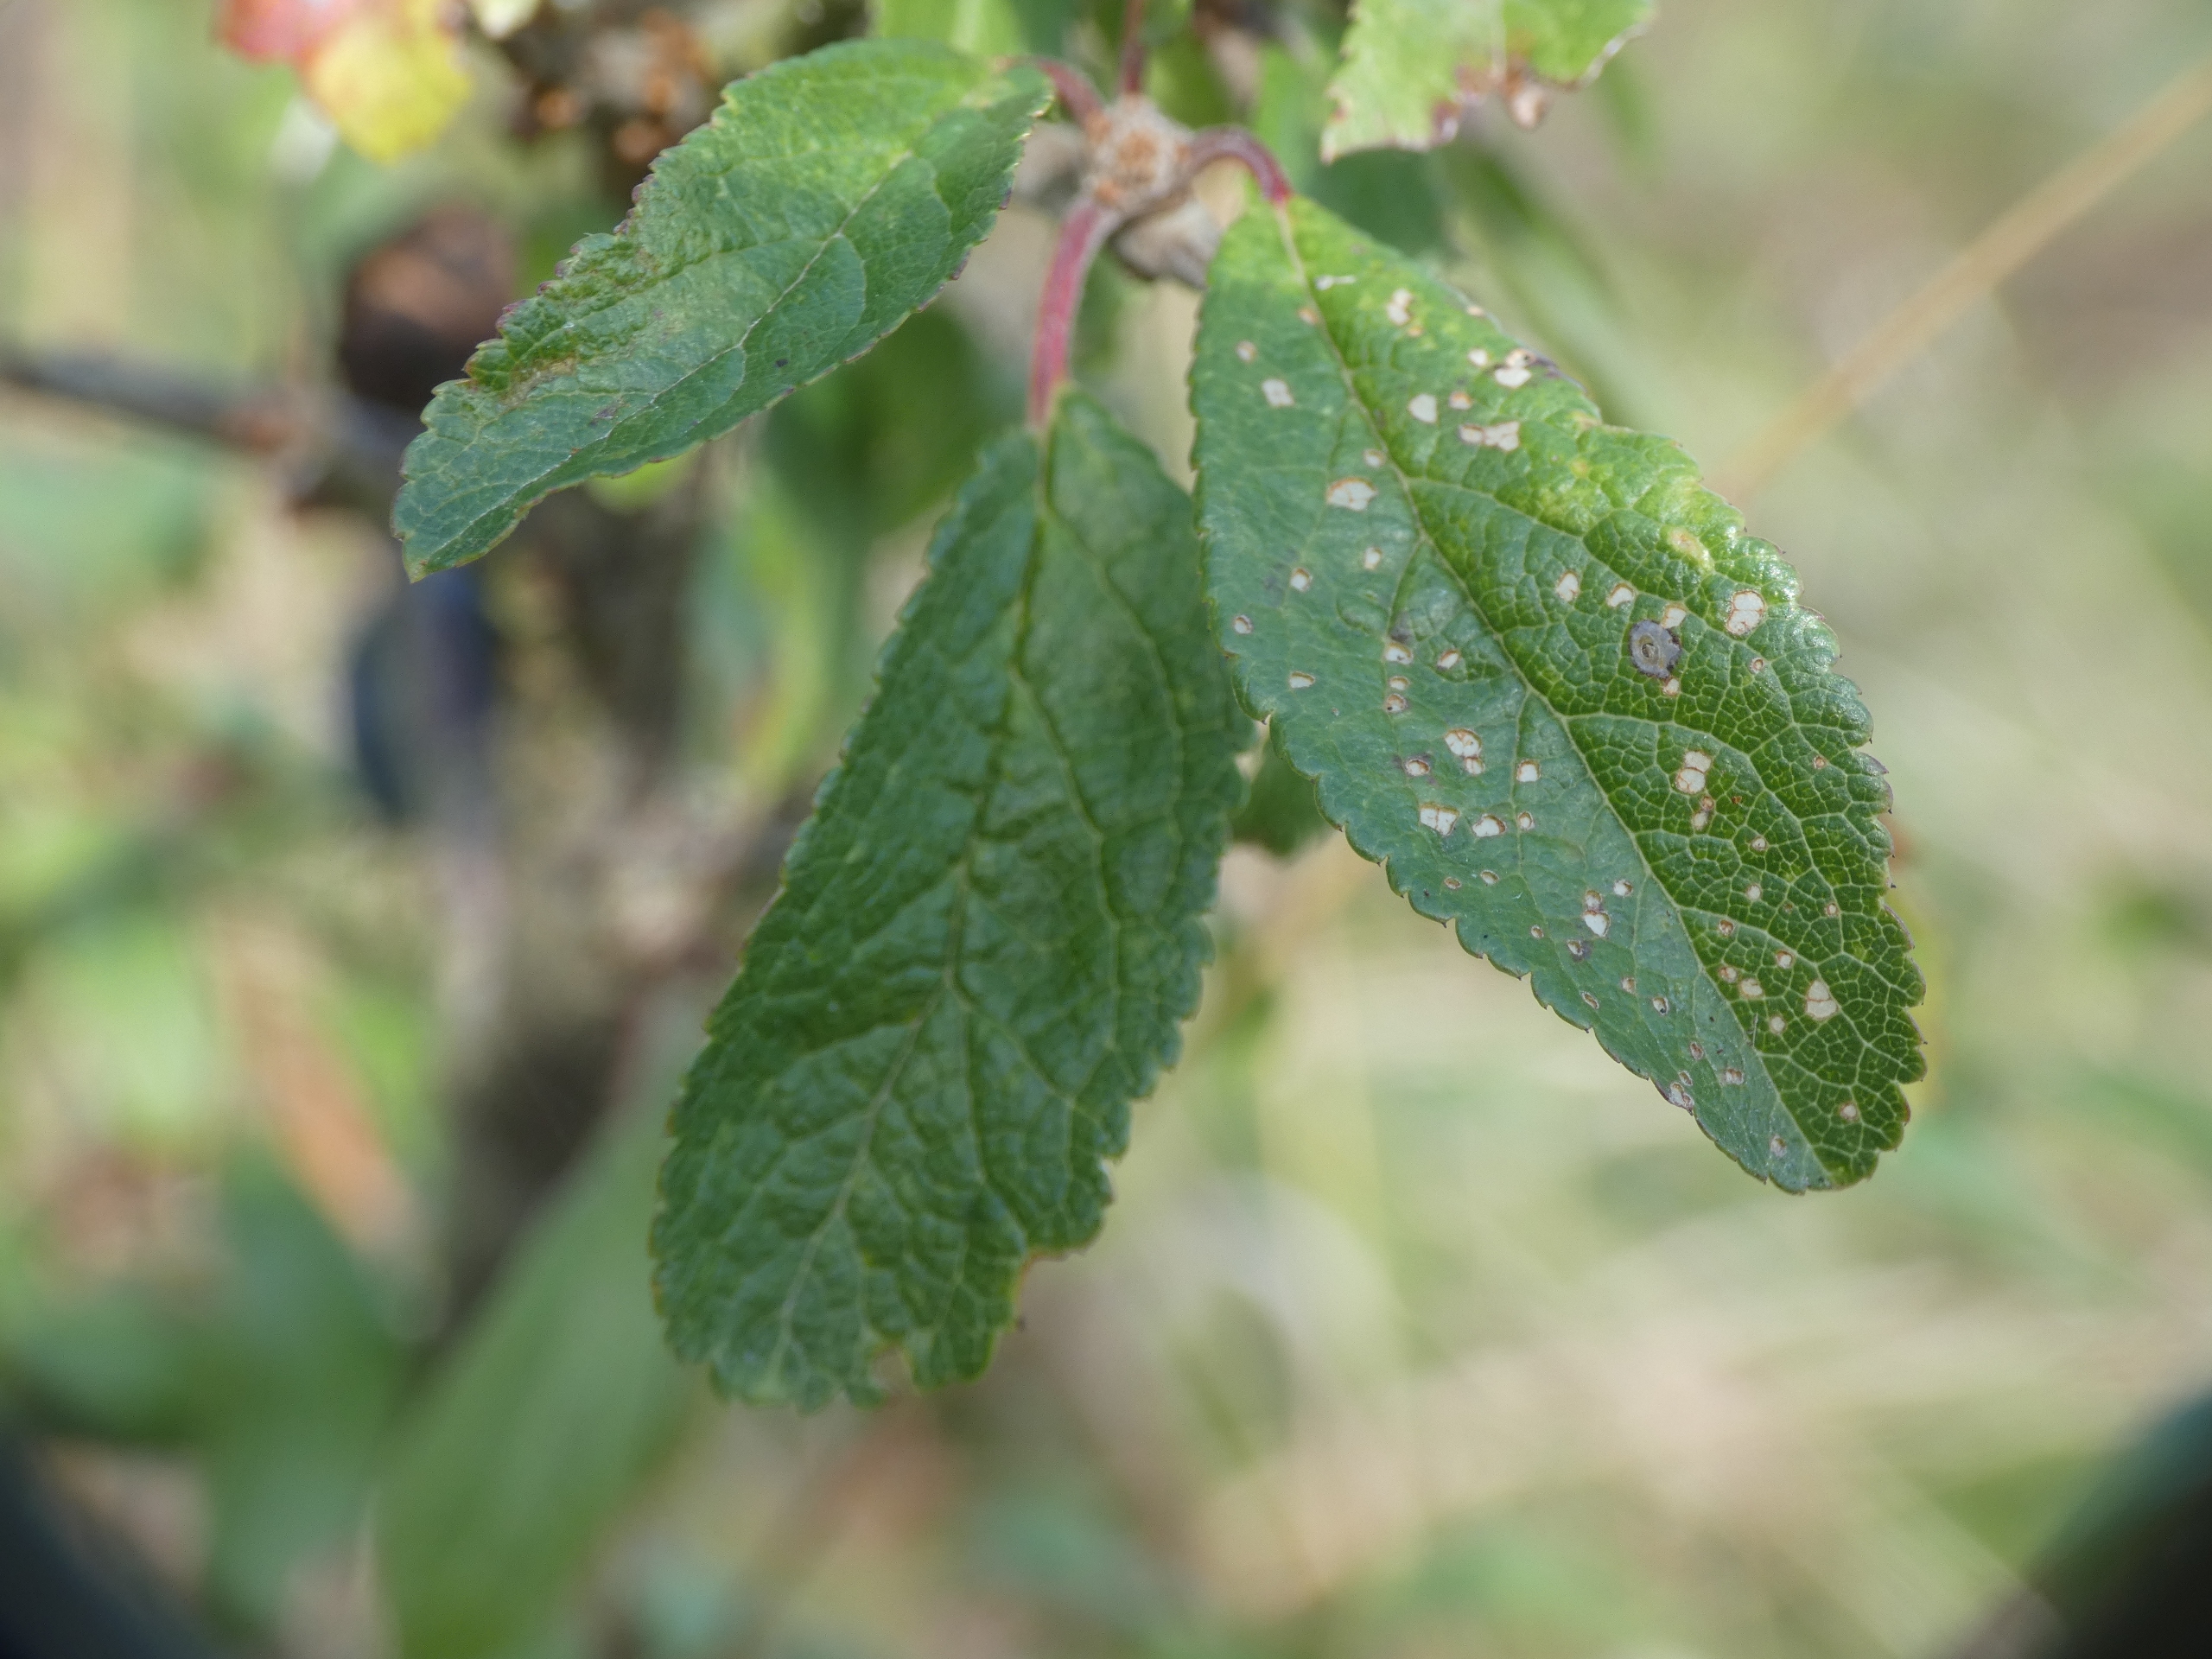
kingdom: Plantae
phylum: Tracheophyta
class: Magnoliopsida
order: Rosales
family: Rosaceae
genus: Prunus
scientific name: Prunus spinosa
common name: Slåen
